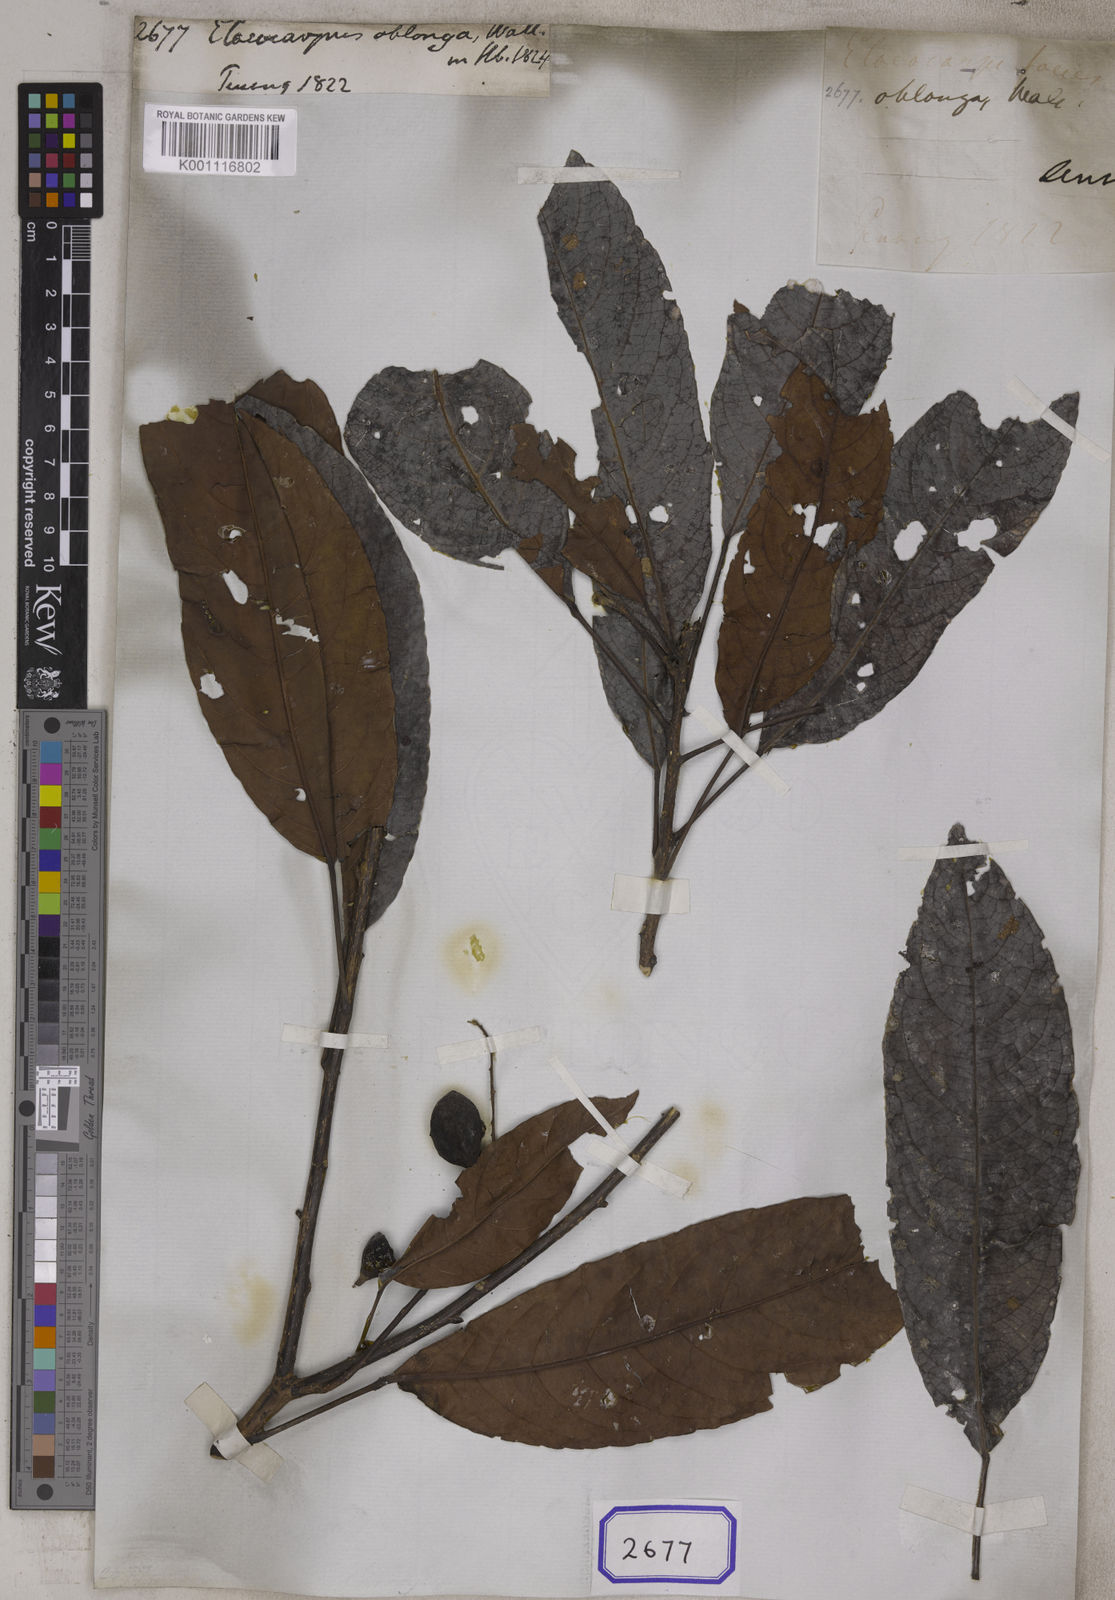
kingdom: Plantae
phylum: Tracheophyta
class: Magnoliopsida
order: Oxalidales
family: Elaeocarpaceae
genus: Elaeocarpus
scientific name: Elaeocarpus
